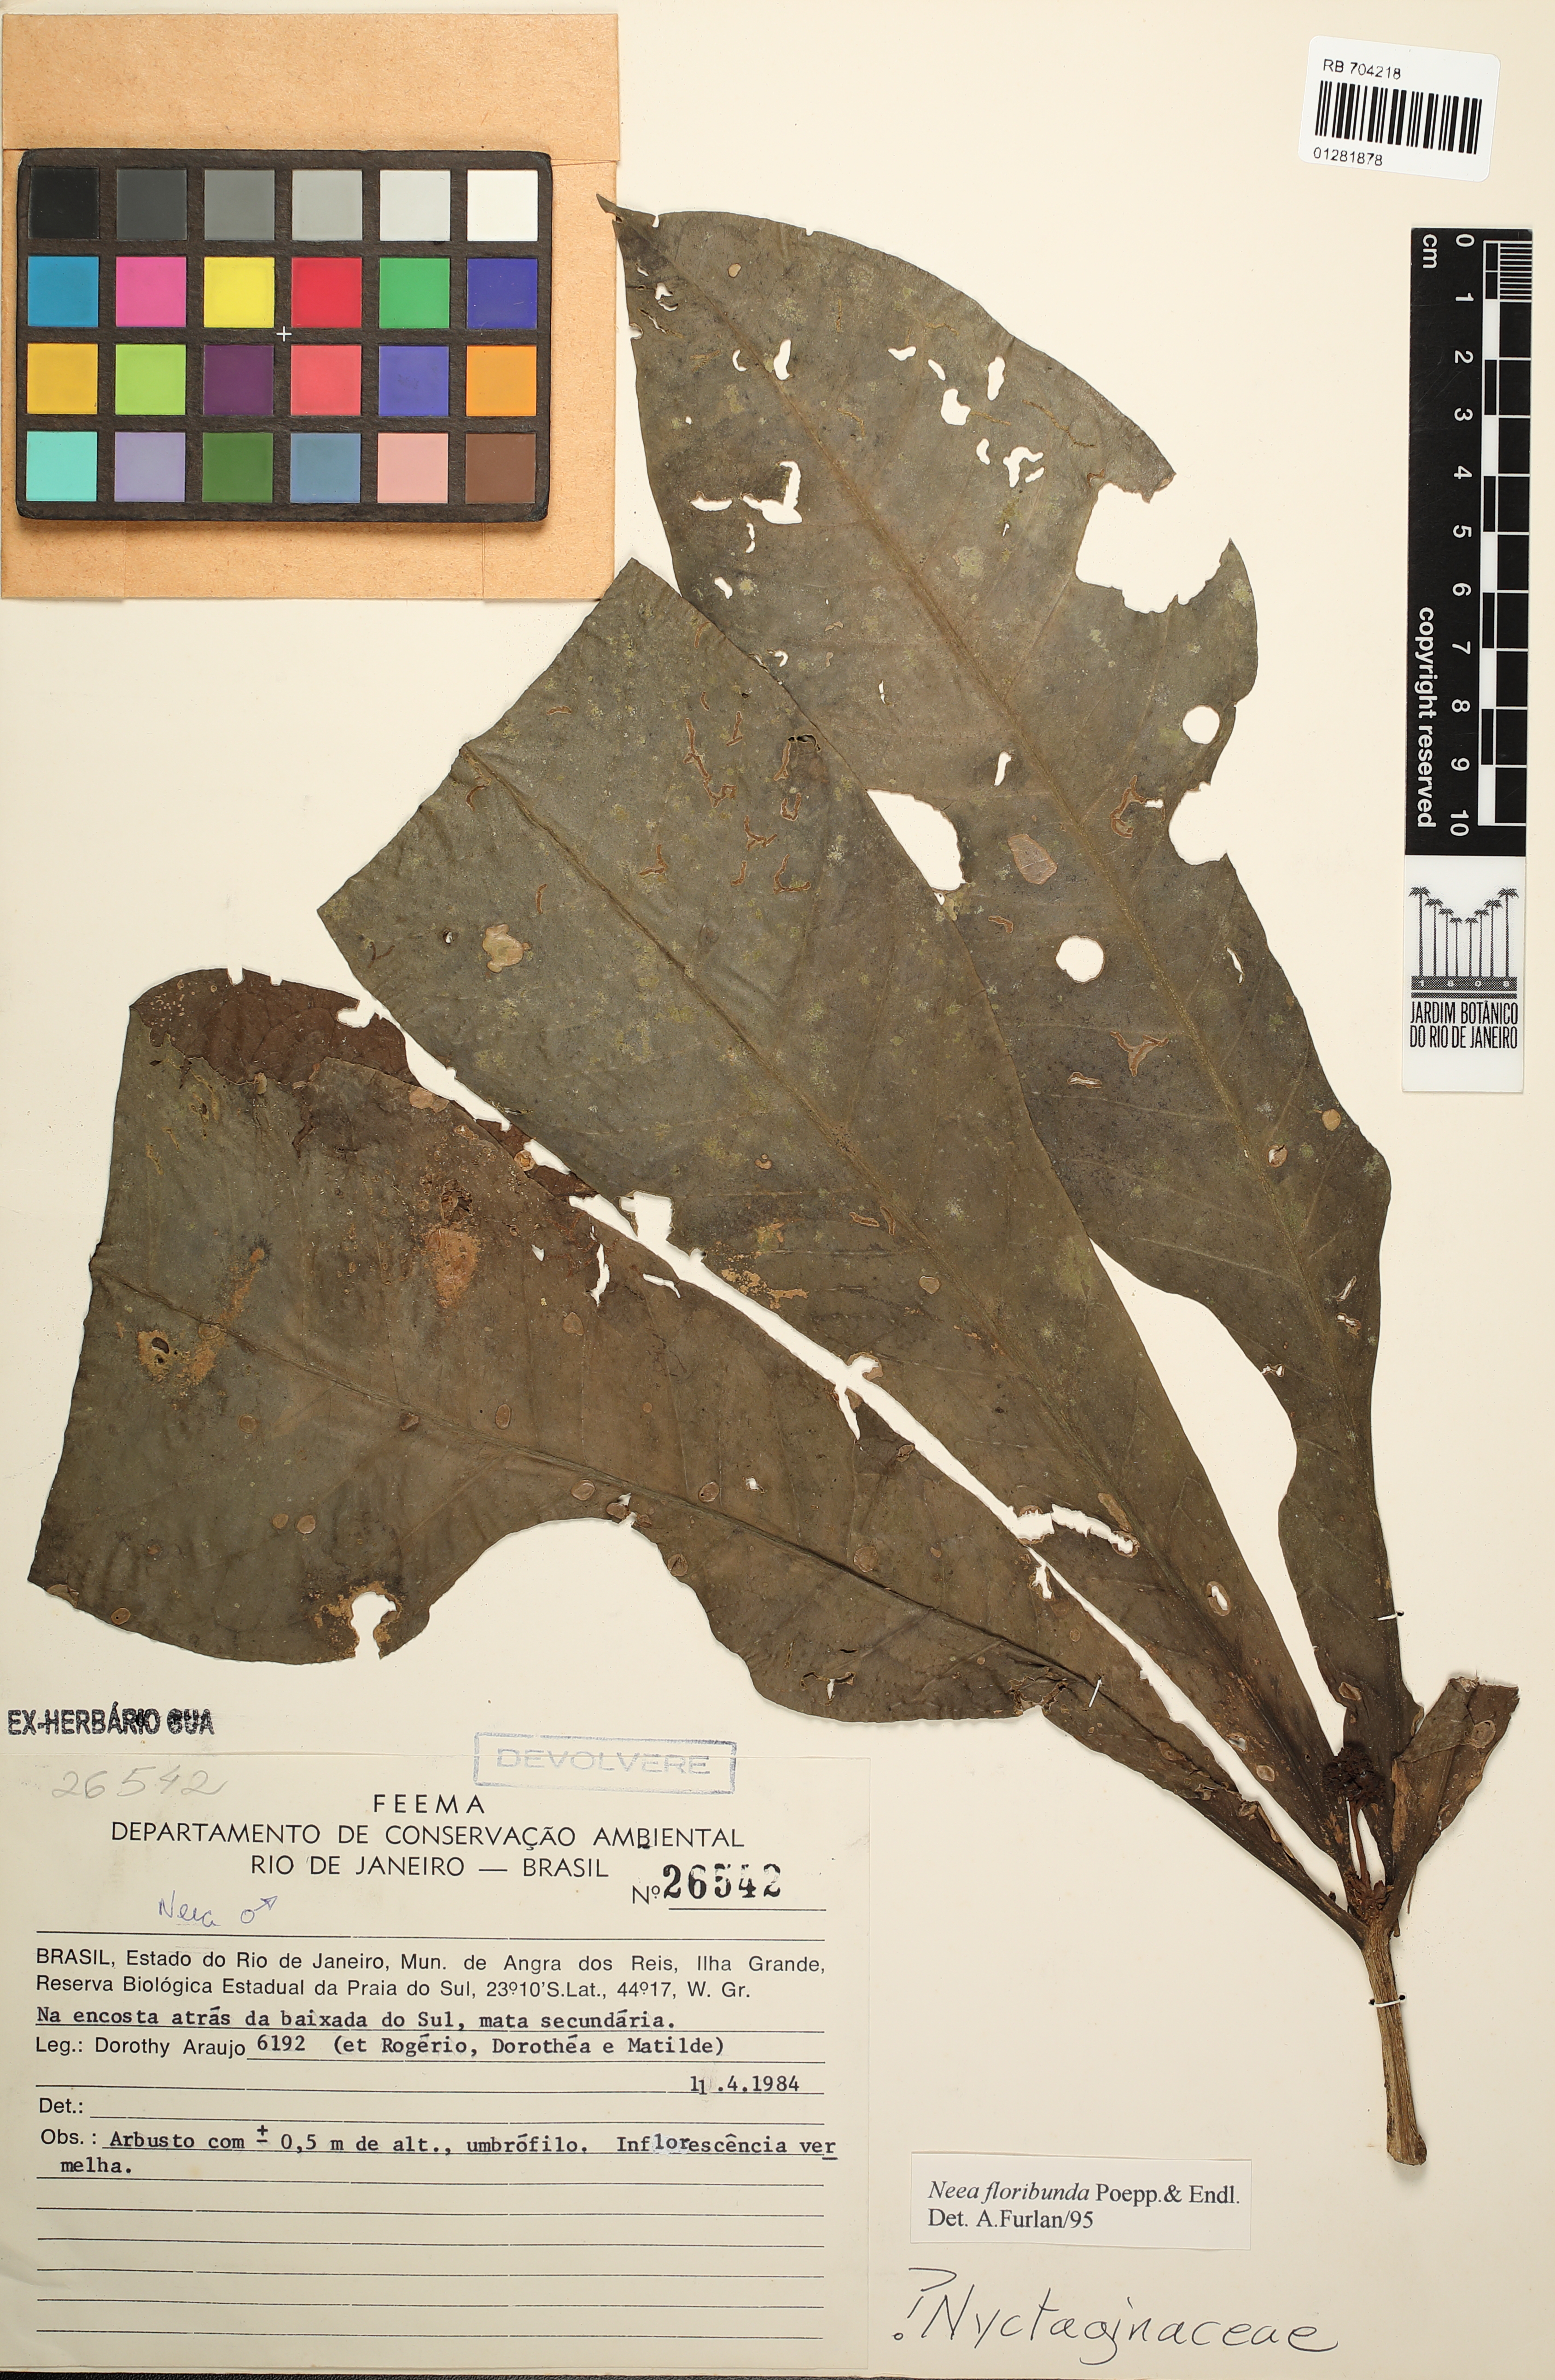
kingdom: Plantae
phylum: Tracheophyta
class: Magnoliopsida
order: Caryophyllales
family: Nyctaginaceae
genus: Neea
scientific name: Neea floribunda
